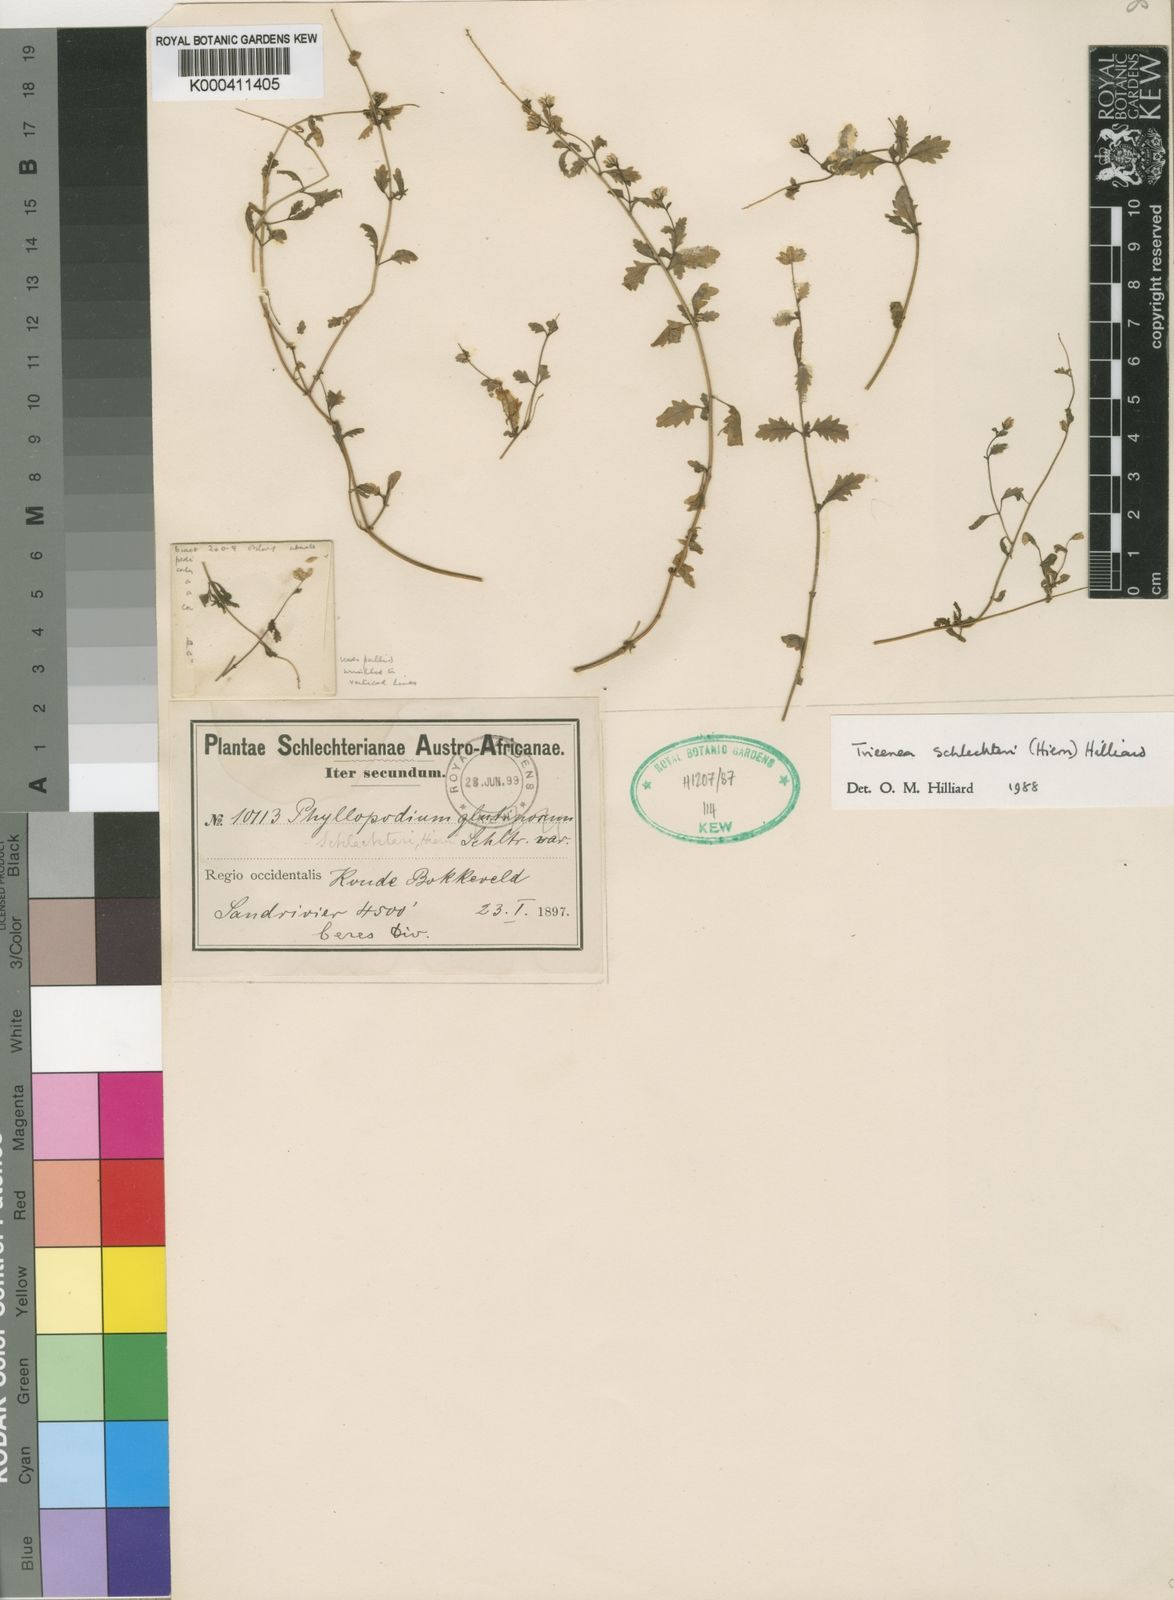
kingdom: Plantae
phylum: Tracheophyta
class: Magnoliopsida
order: Lamiales
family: Scrophulariaceae
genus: Trieenea
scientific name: Trieenea schlechteri
